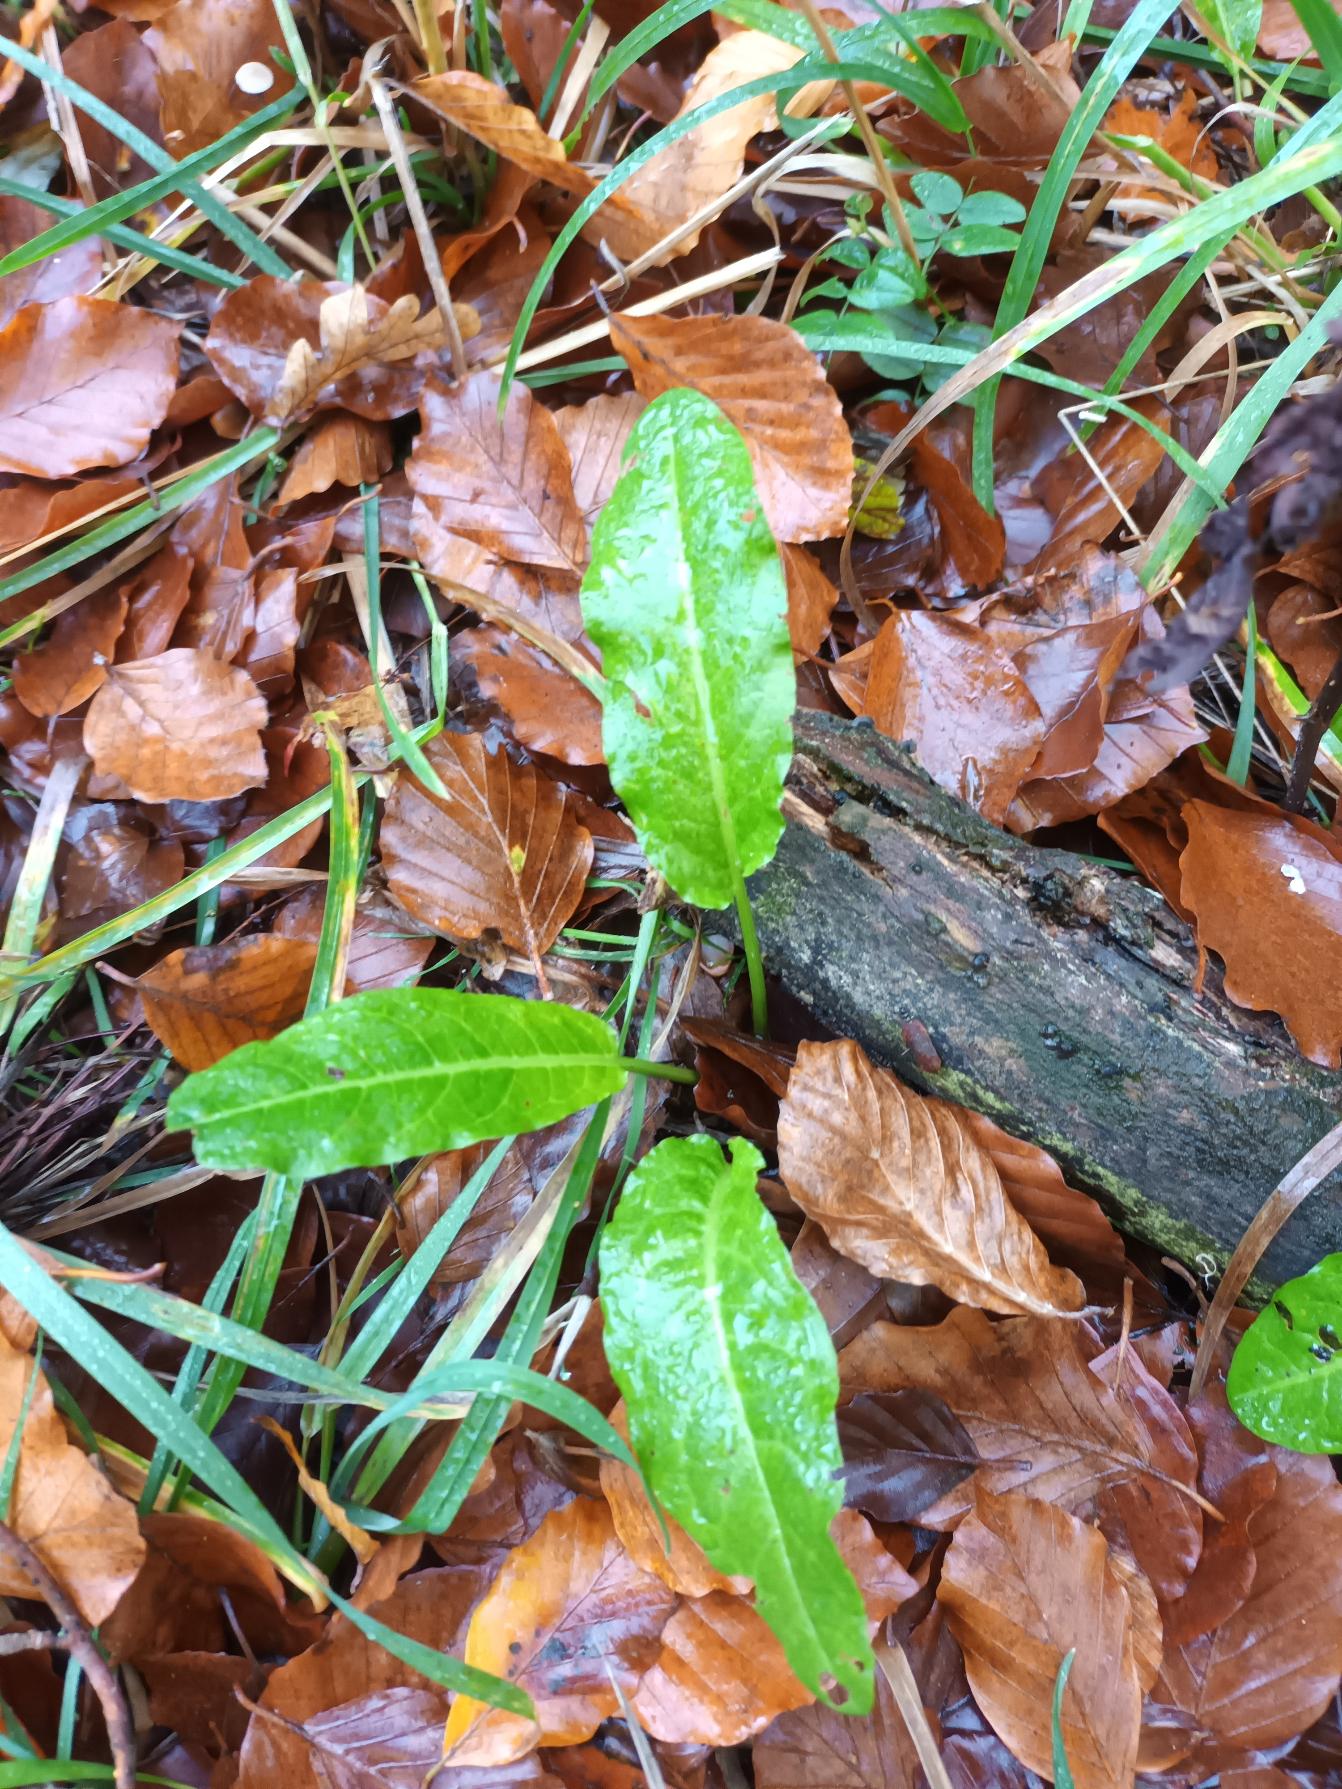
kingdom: Plantae
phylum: Tracheophyta
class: Magnoliopsida
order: Caryophyllales
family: Polygonaceae
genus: Rumex
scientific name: Rumex sanguineus
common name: Skov-skræppe
